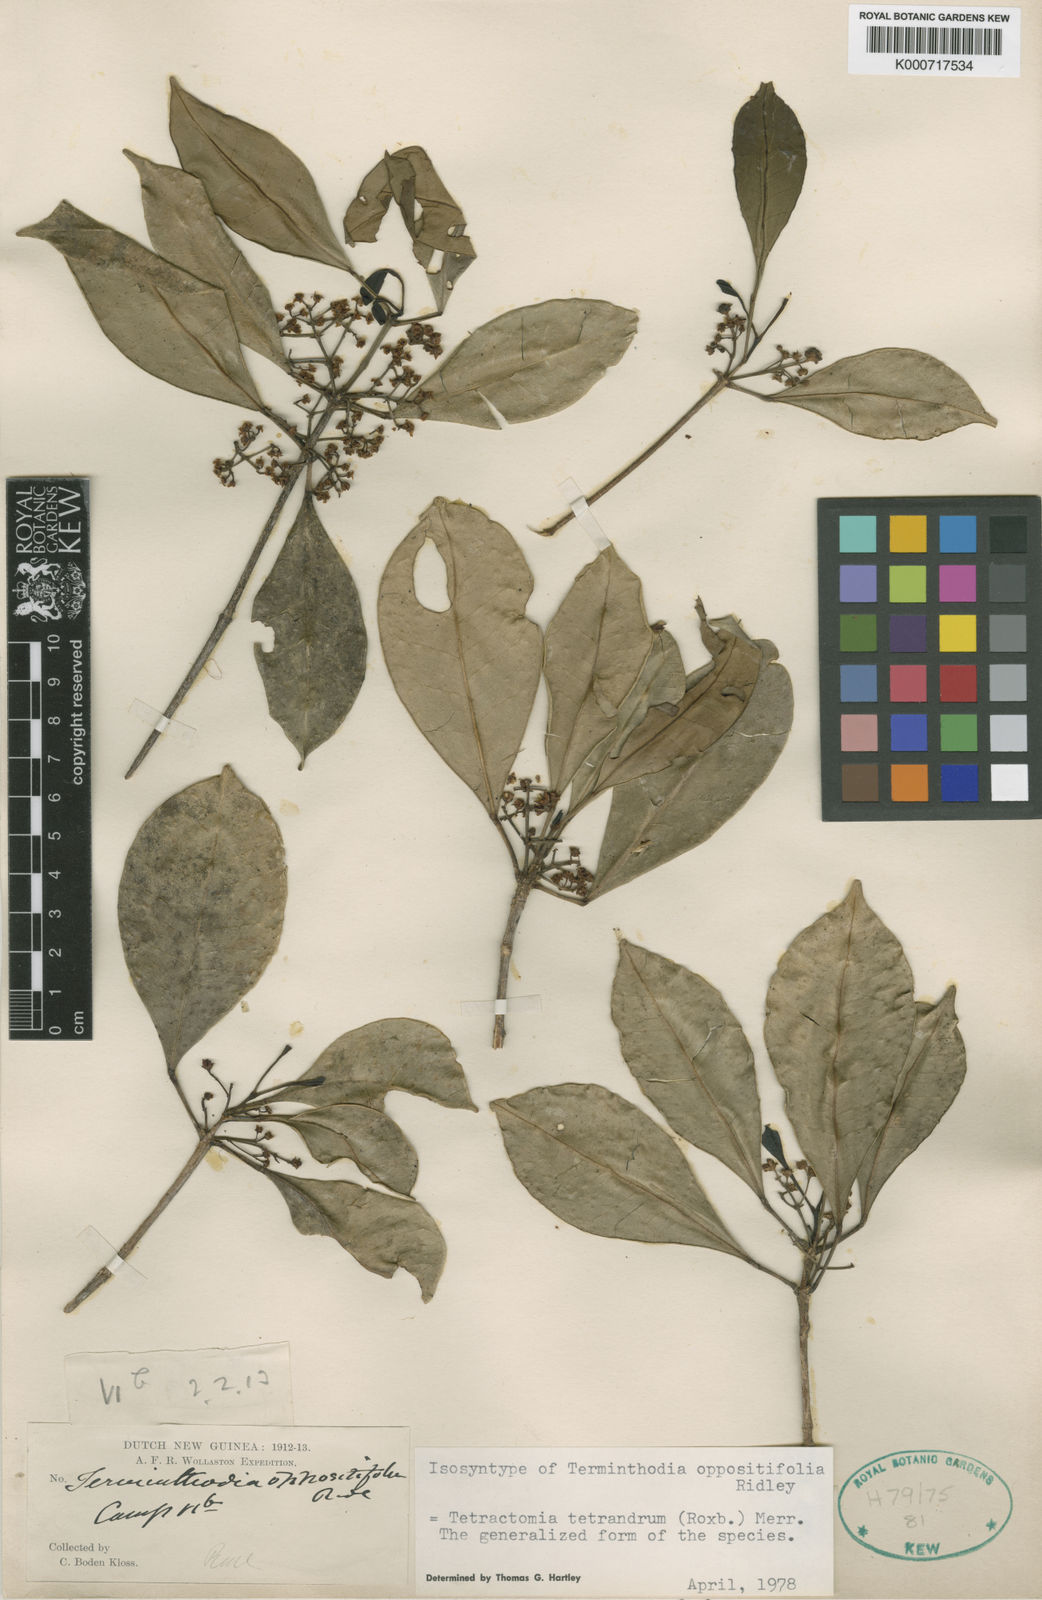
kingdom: Plantae
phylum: Tracheophyta
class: Magnoliopsida
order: Sapindales
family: Rutaceae
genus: Tetractomia
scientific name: Tetractomia tetrandra
